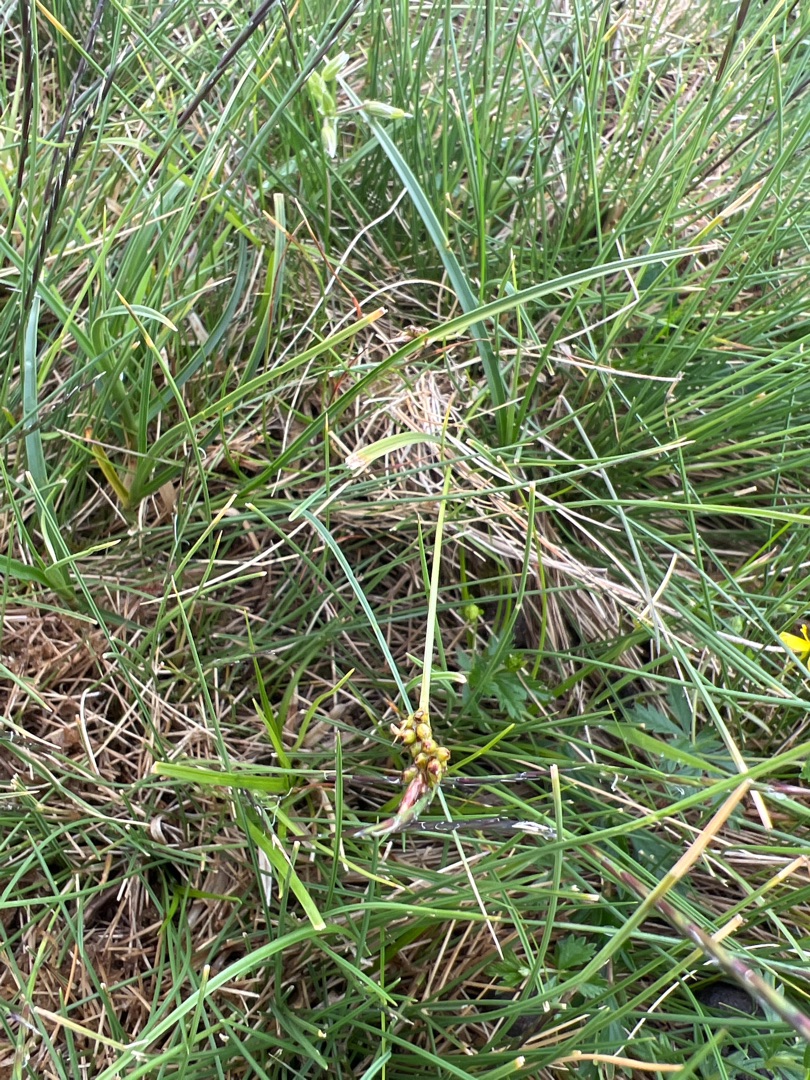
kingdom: Plantae
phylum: Tracheophyta
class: Liliopsida
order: Poales
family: Cyperaceae
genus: Carex
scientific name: Carex pilulifera
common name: Pille-star
